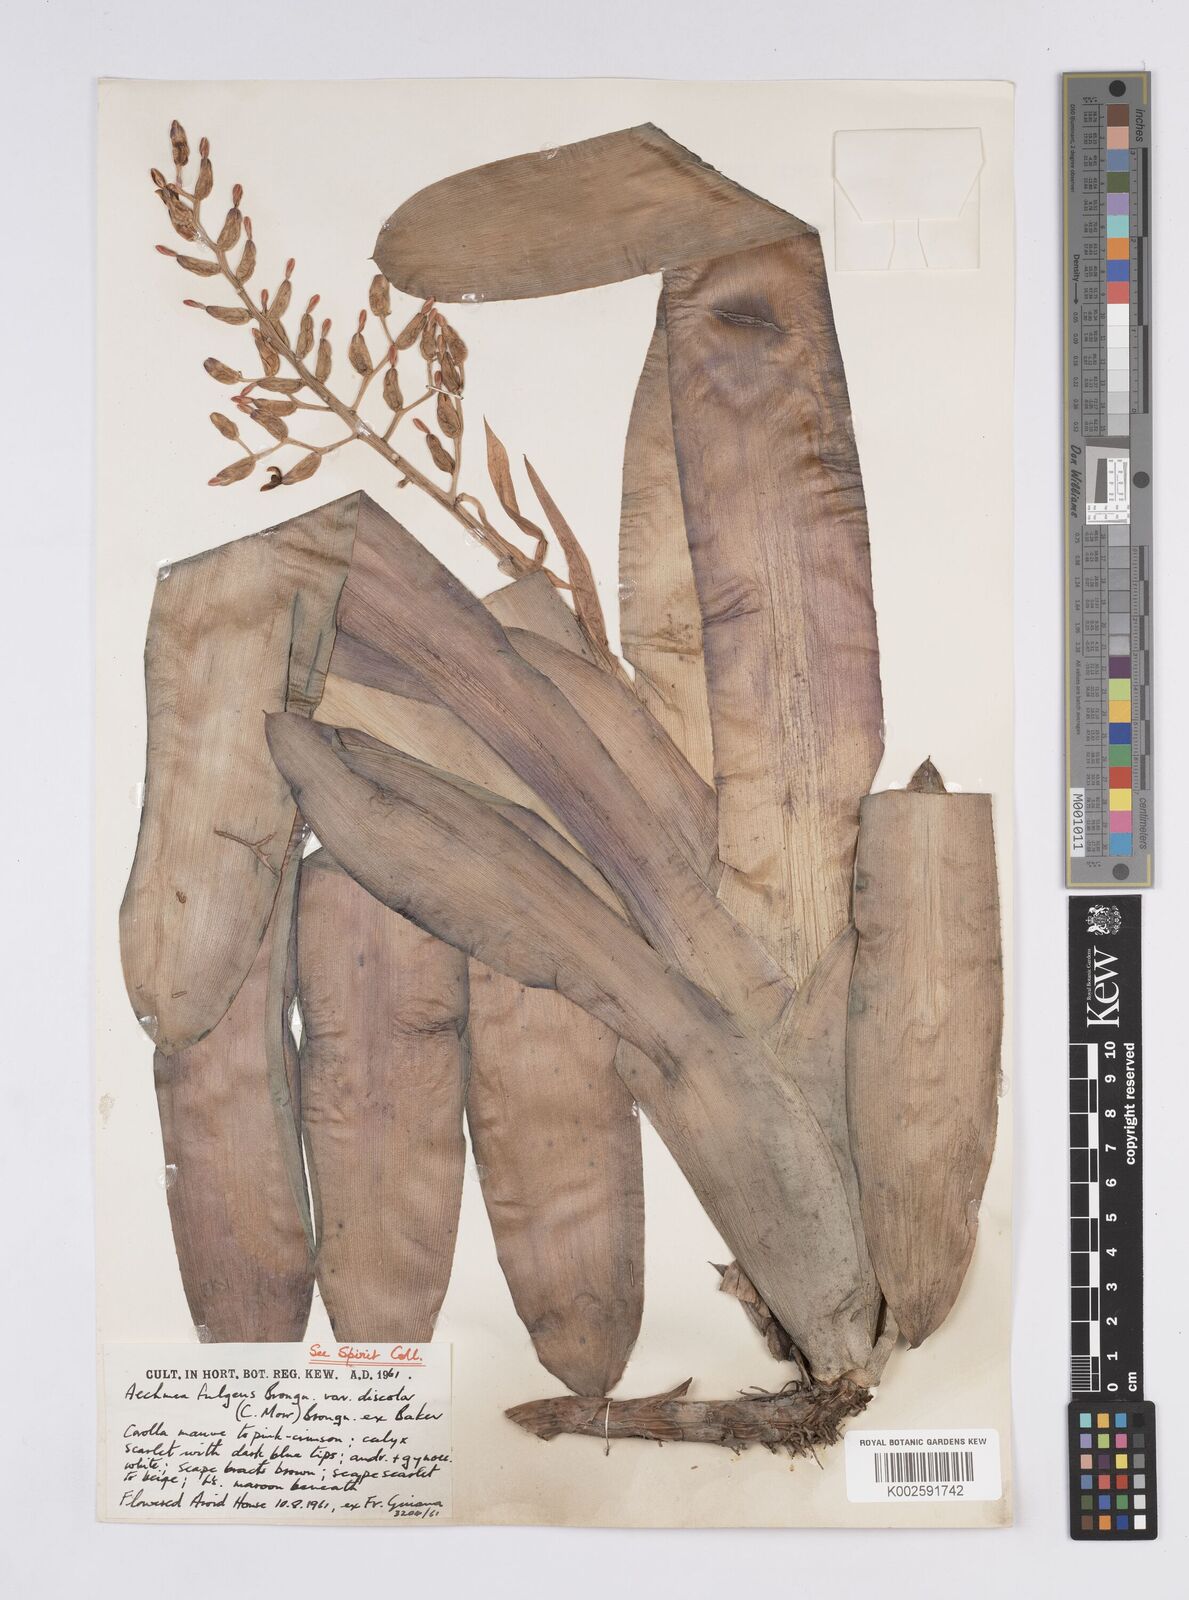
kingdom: Plantae
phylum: Tracheophyta
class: Liliopsida
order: Poales
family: Bromeliaceae
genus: Aechmea
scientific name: Aechmea fulgens
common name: Coralberry
